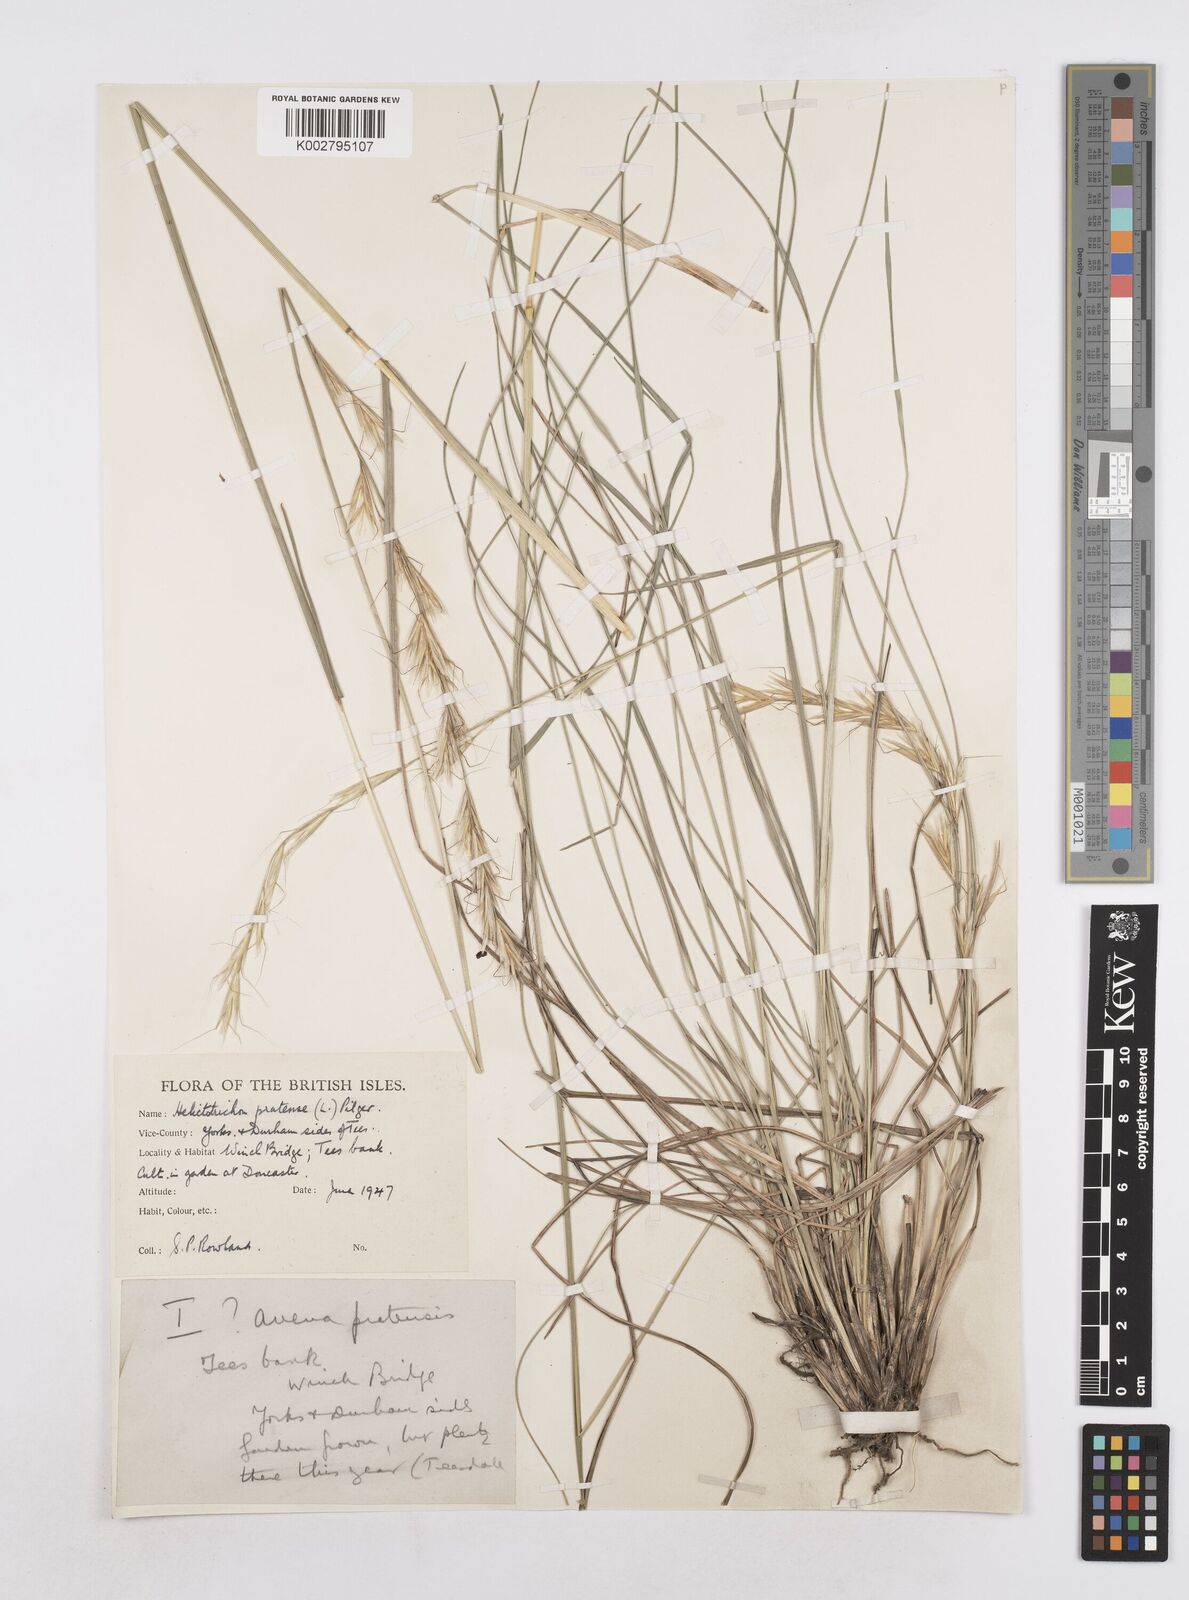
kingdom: Plantae
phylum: Tracheophyta
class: Liliopsida
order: Poales
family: Poaceae
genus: Helictochloa
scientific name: Helictochloa pratensis
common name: Meadow oat grass
